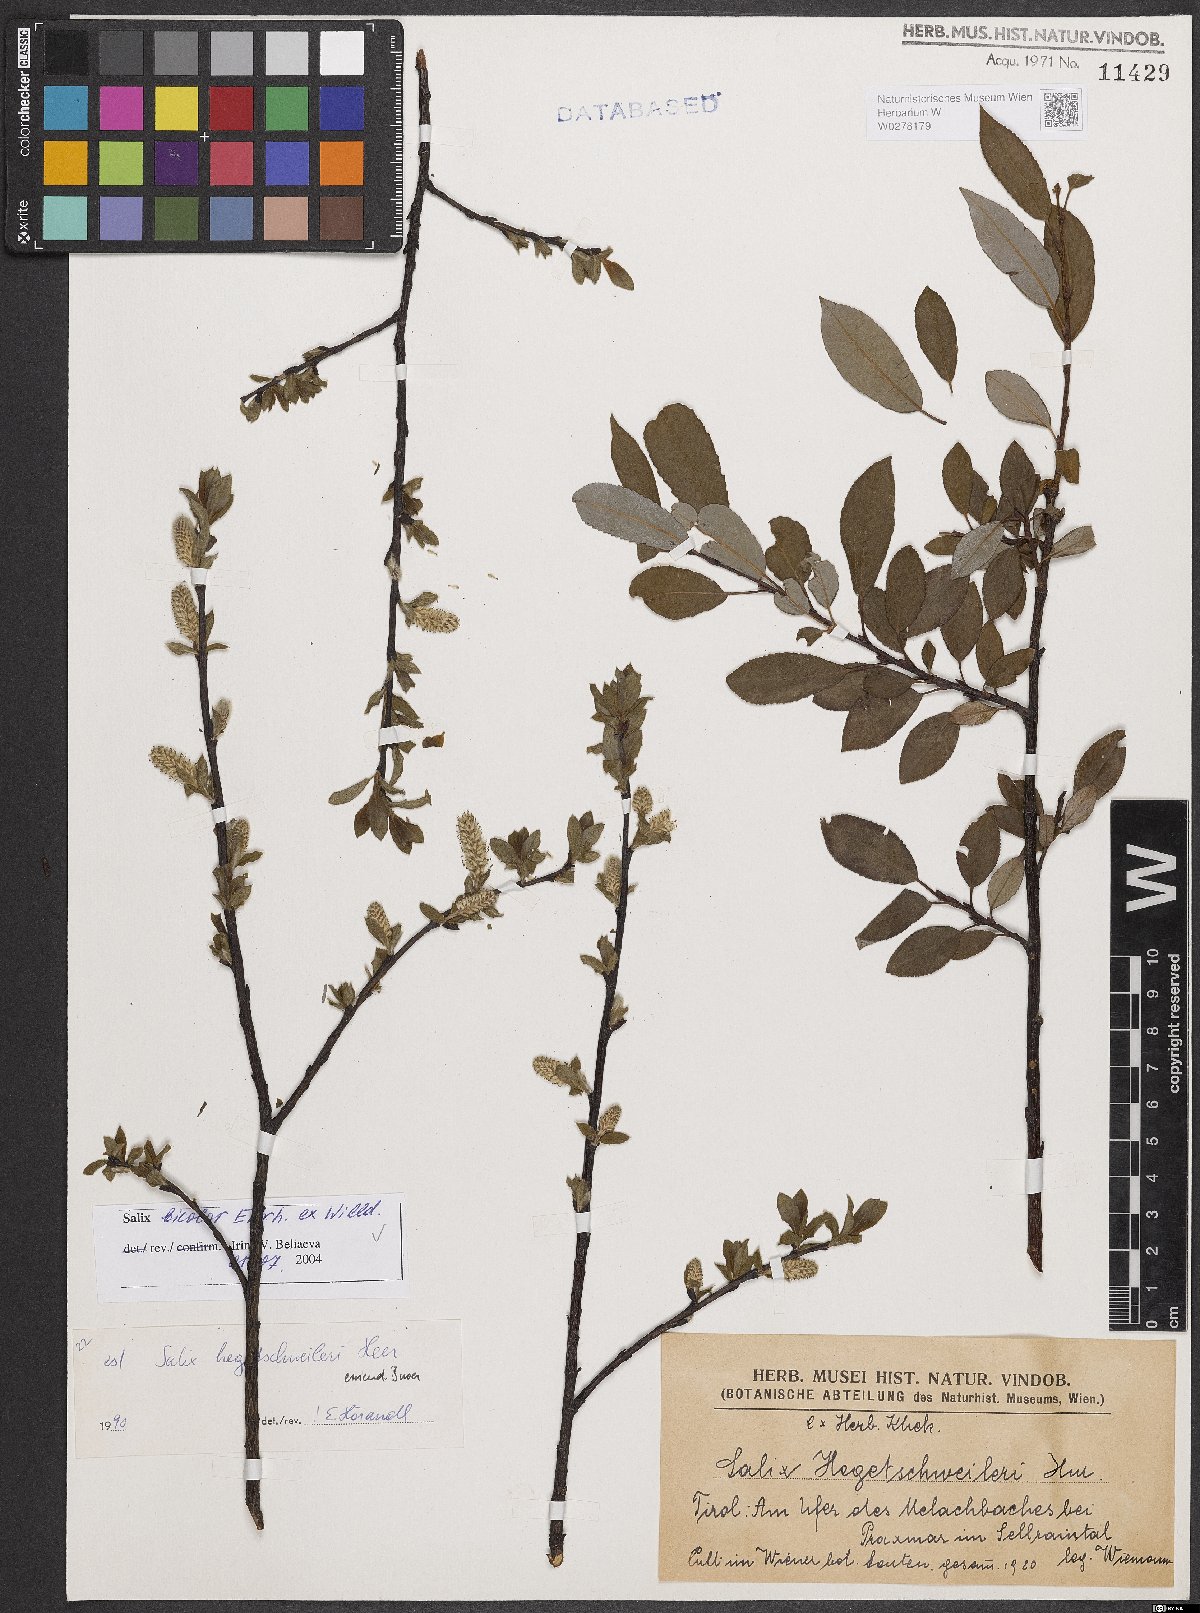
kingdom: Plantae
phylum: Tracheophyta
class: Magnoliopsida
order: Malpighiales
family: Salicaceae
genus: Salix
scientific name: Salix bicolor
